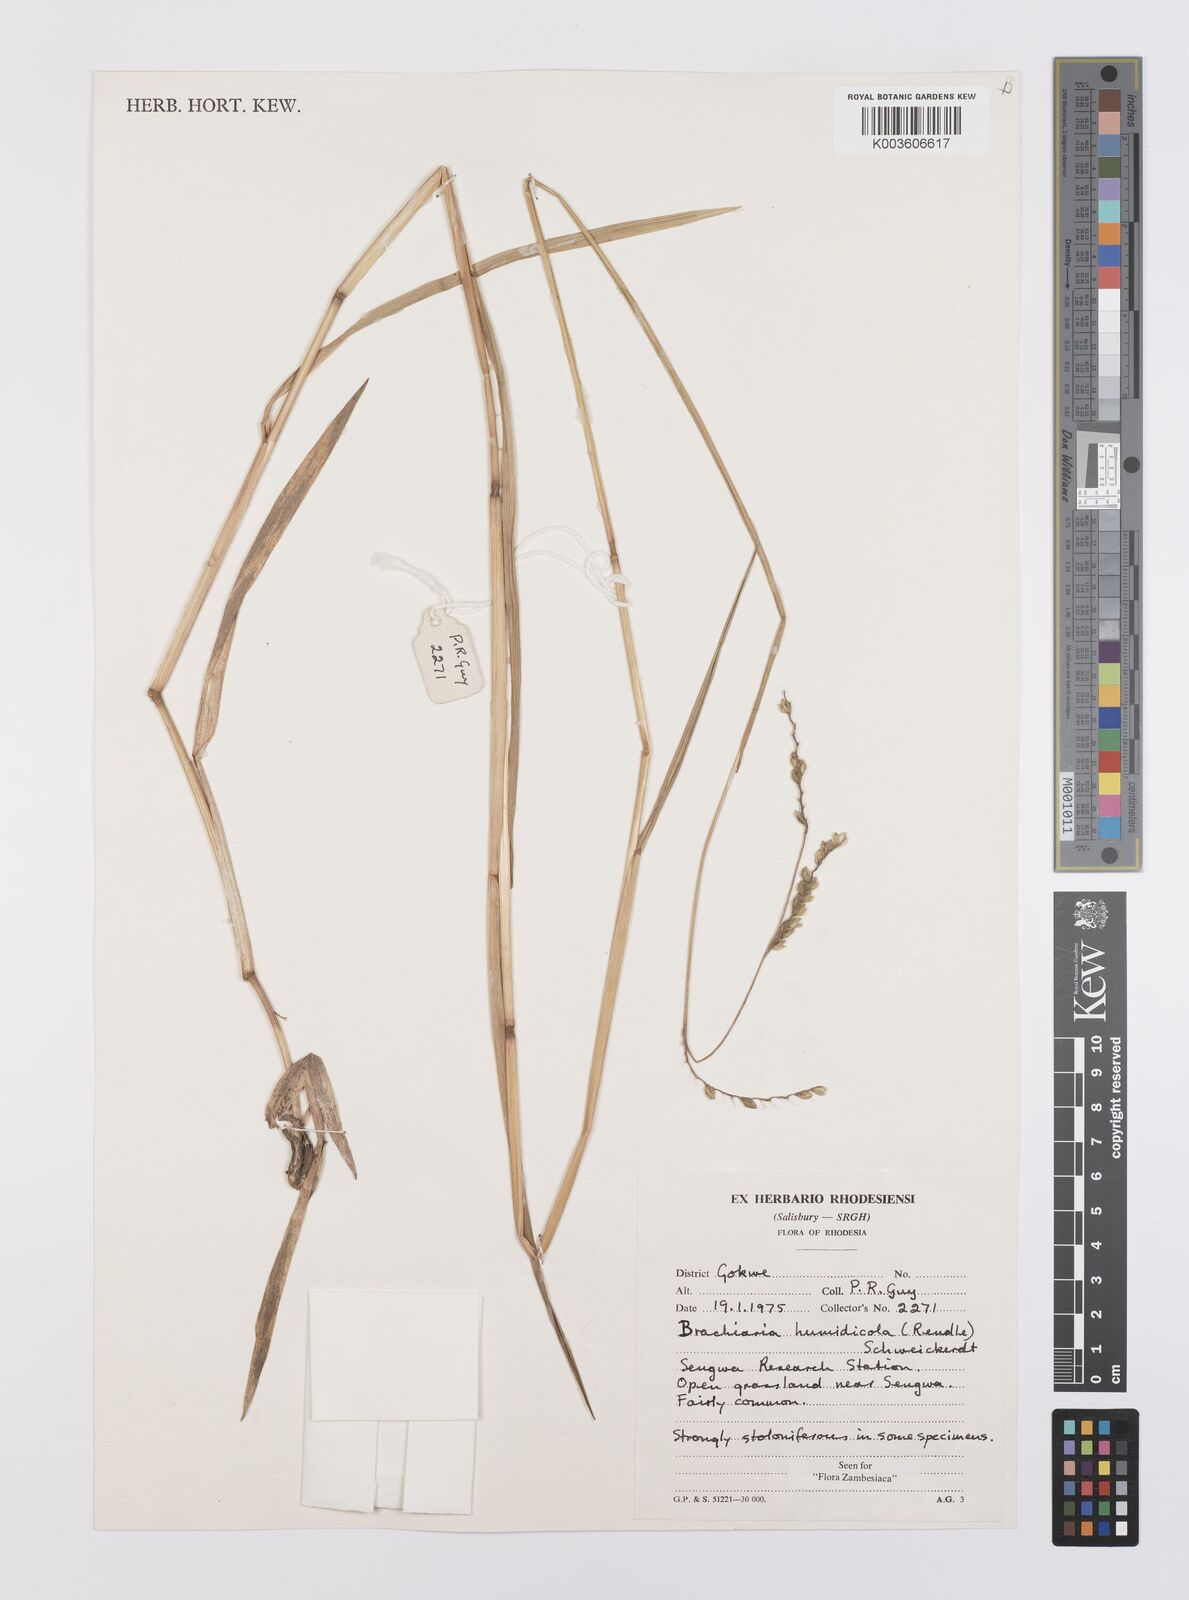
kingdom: Plantae
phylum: Tracheophyta
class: Liliopsida
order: Poales
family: Poaceae
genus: Urochloa
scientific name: Urochloa dictyoneura
